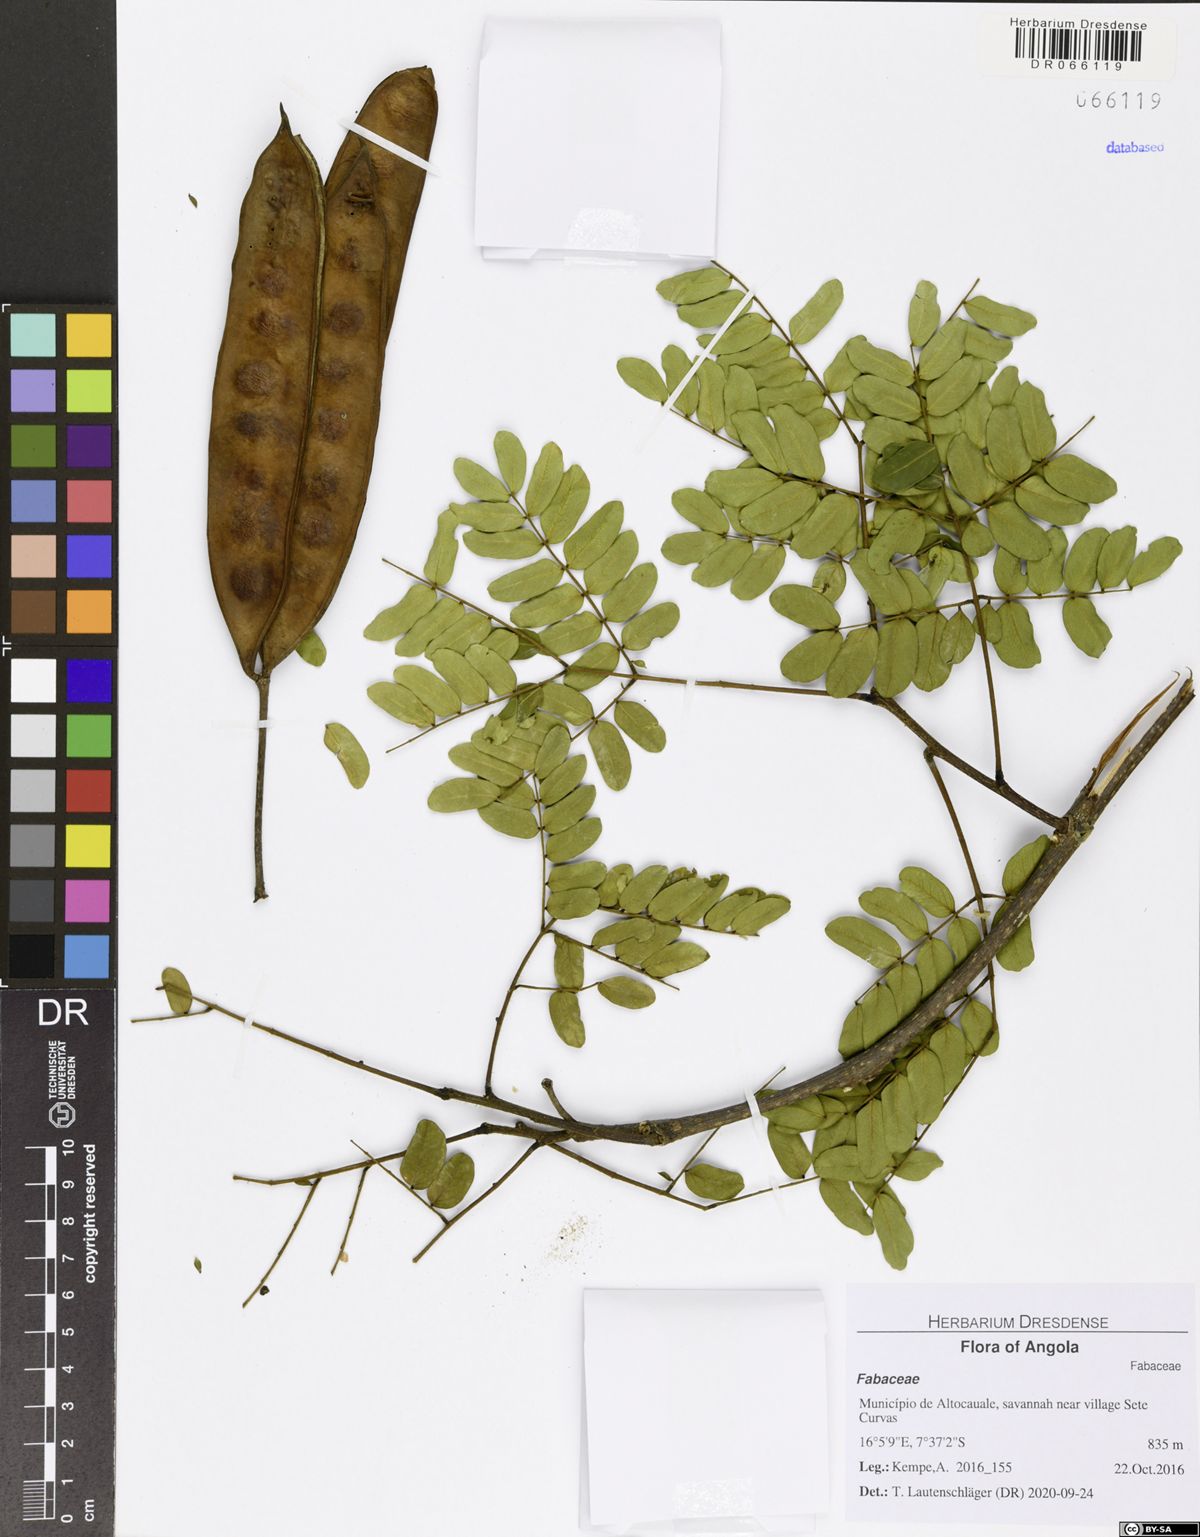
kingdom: Plantae
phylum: Tracheophyta
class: Magnoliopsida
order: Fabales
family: Fabaceae
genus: Albizia
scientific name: Albizia coriaria
